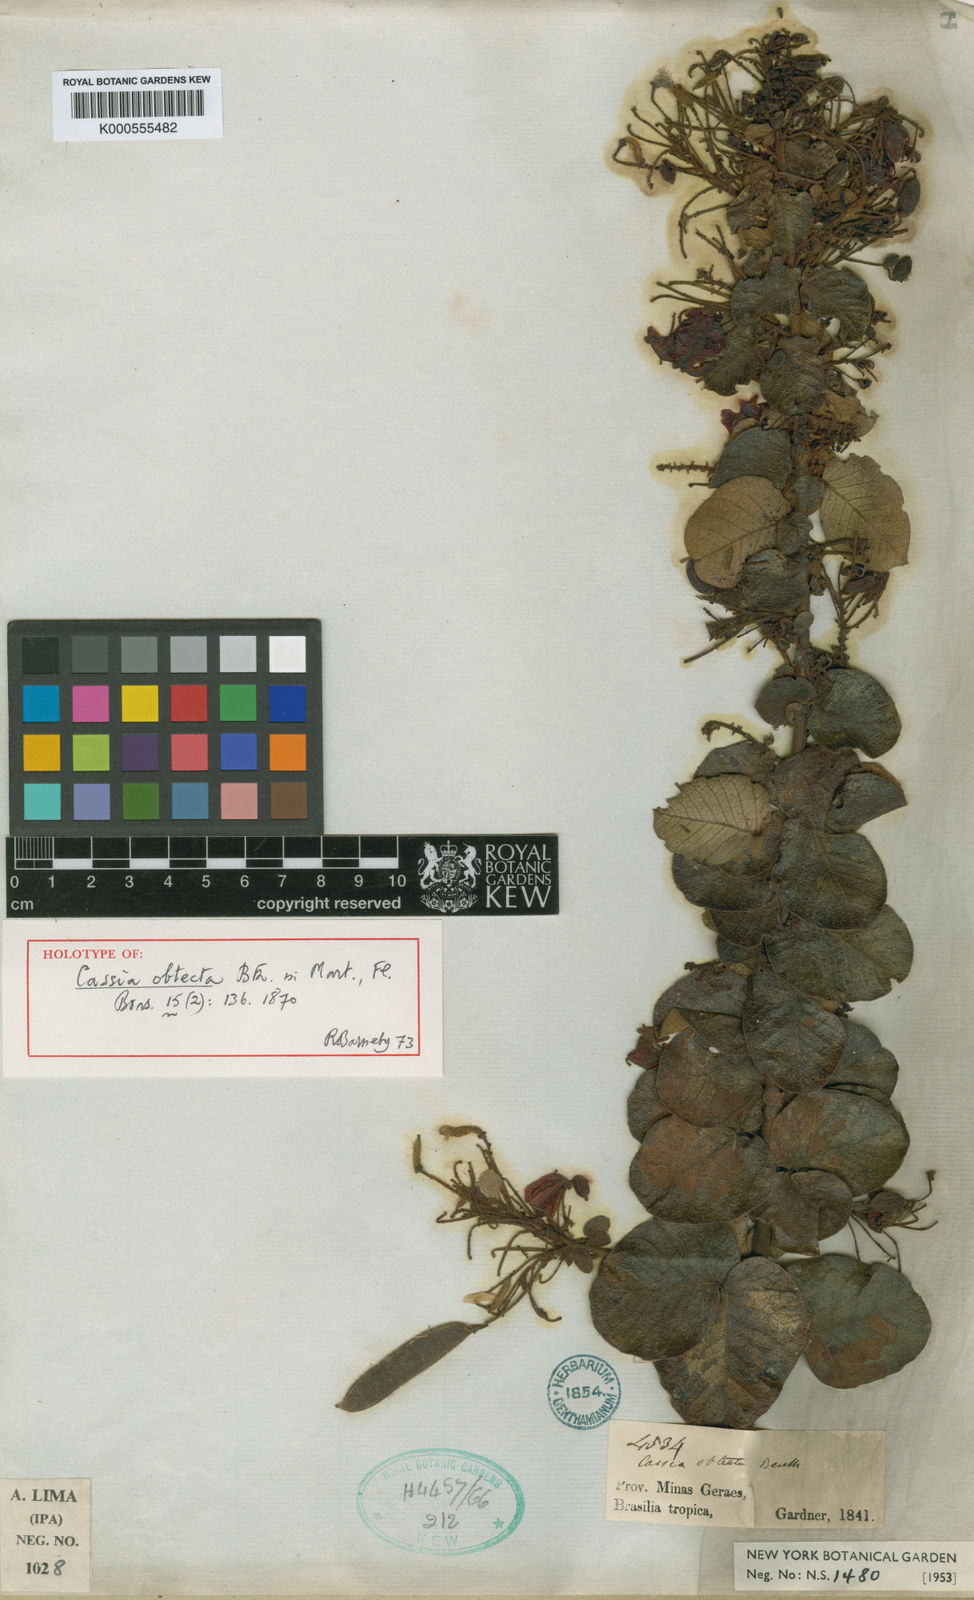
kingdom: Plantae
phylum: Tracheophyta
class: Magnoliopsida
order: Fabales
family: Fabaceae
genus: Chamaecrista
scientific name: Chamaecrista obtecta
